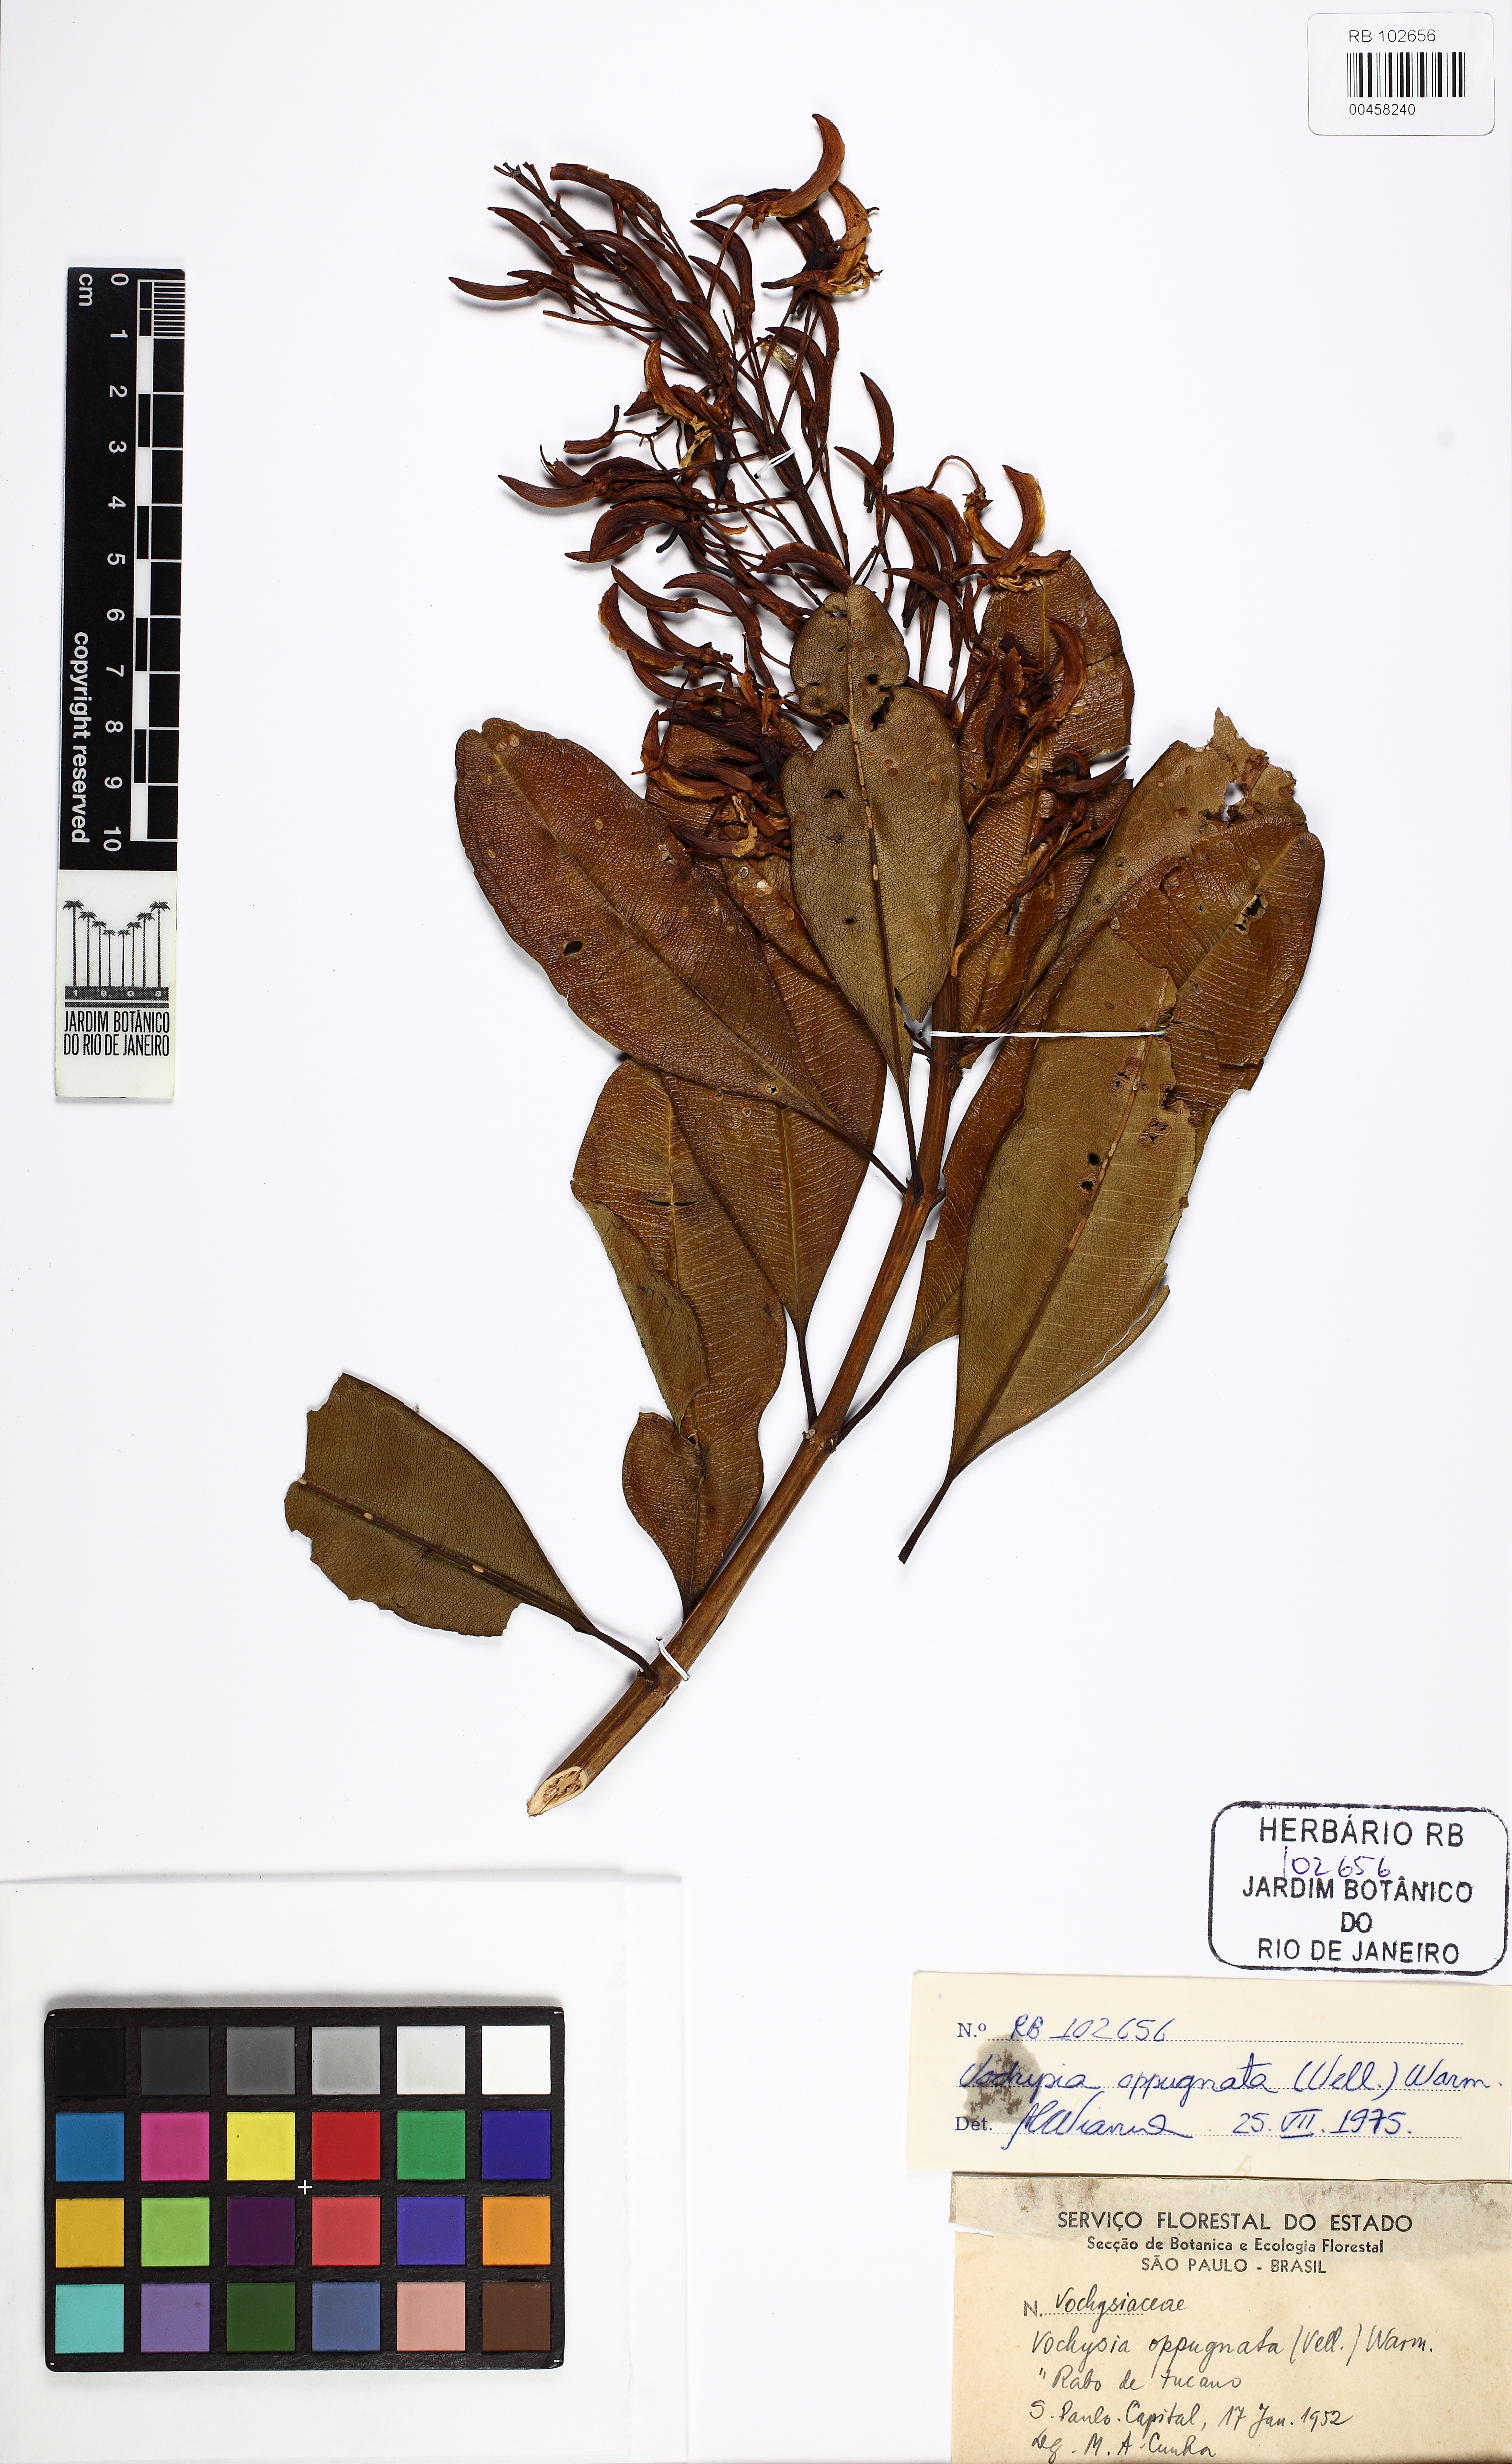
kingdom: Plantae
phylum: Tracheophyta
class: Magnoliopsida
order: Myrtales
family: Vochysiaceae
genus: Vochysia
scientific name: Vochysia oppugnata
